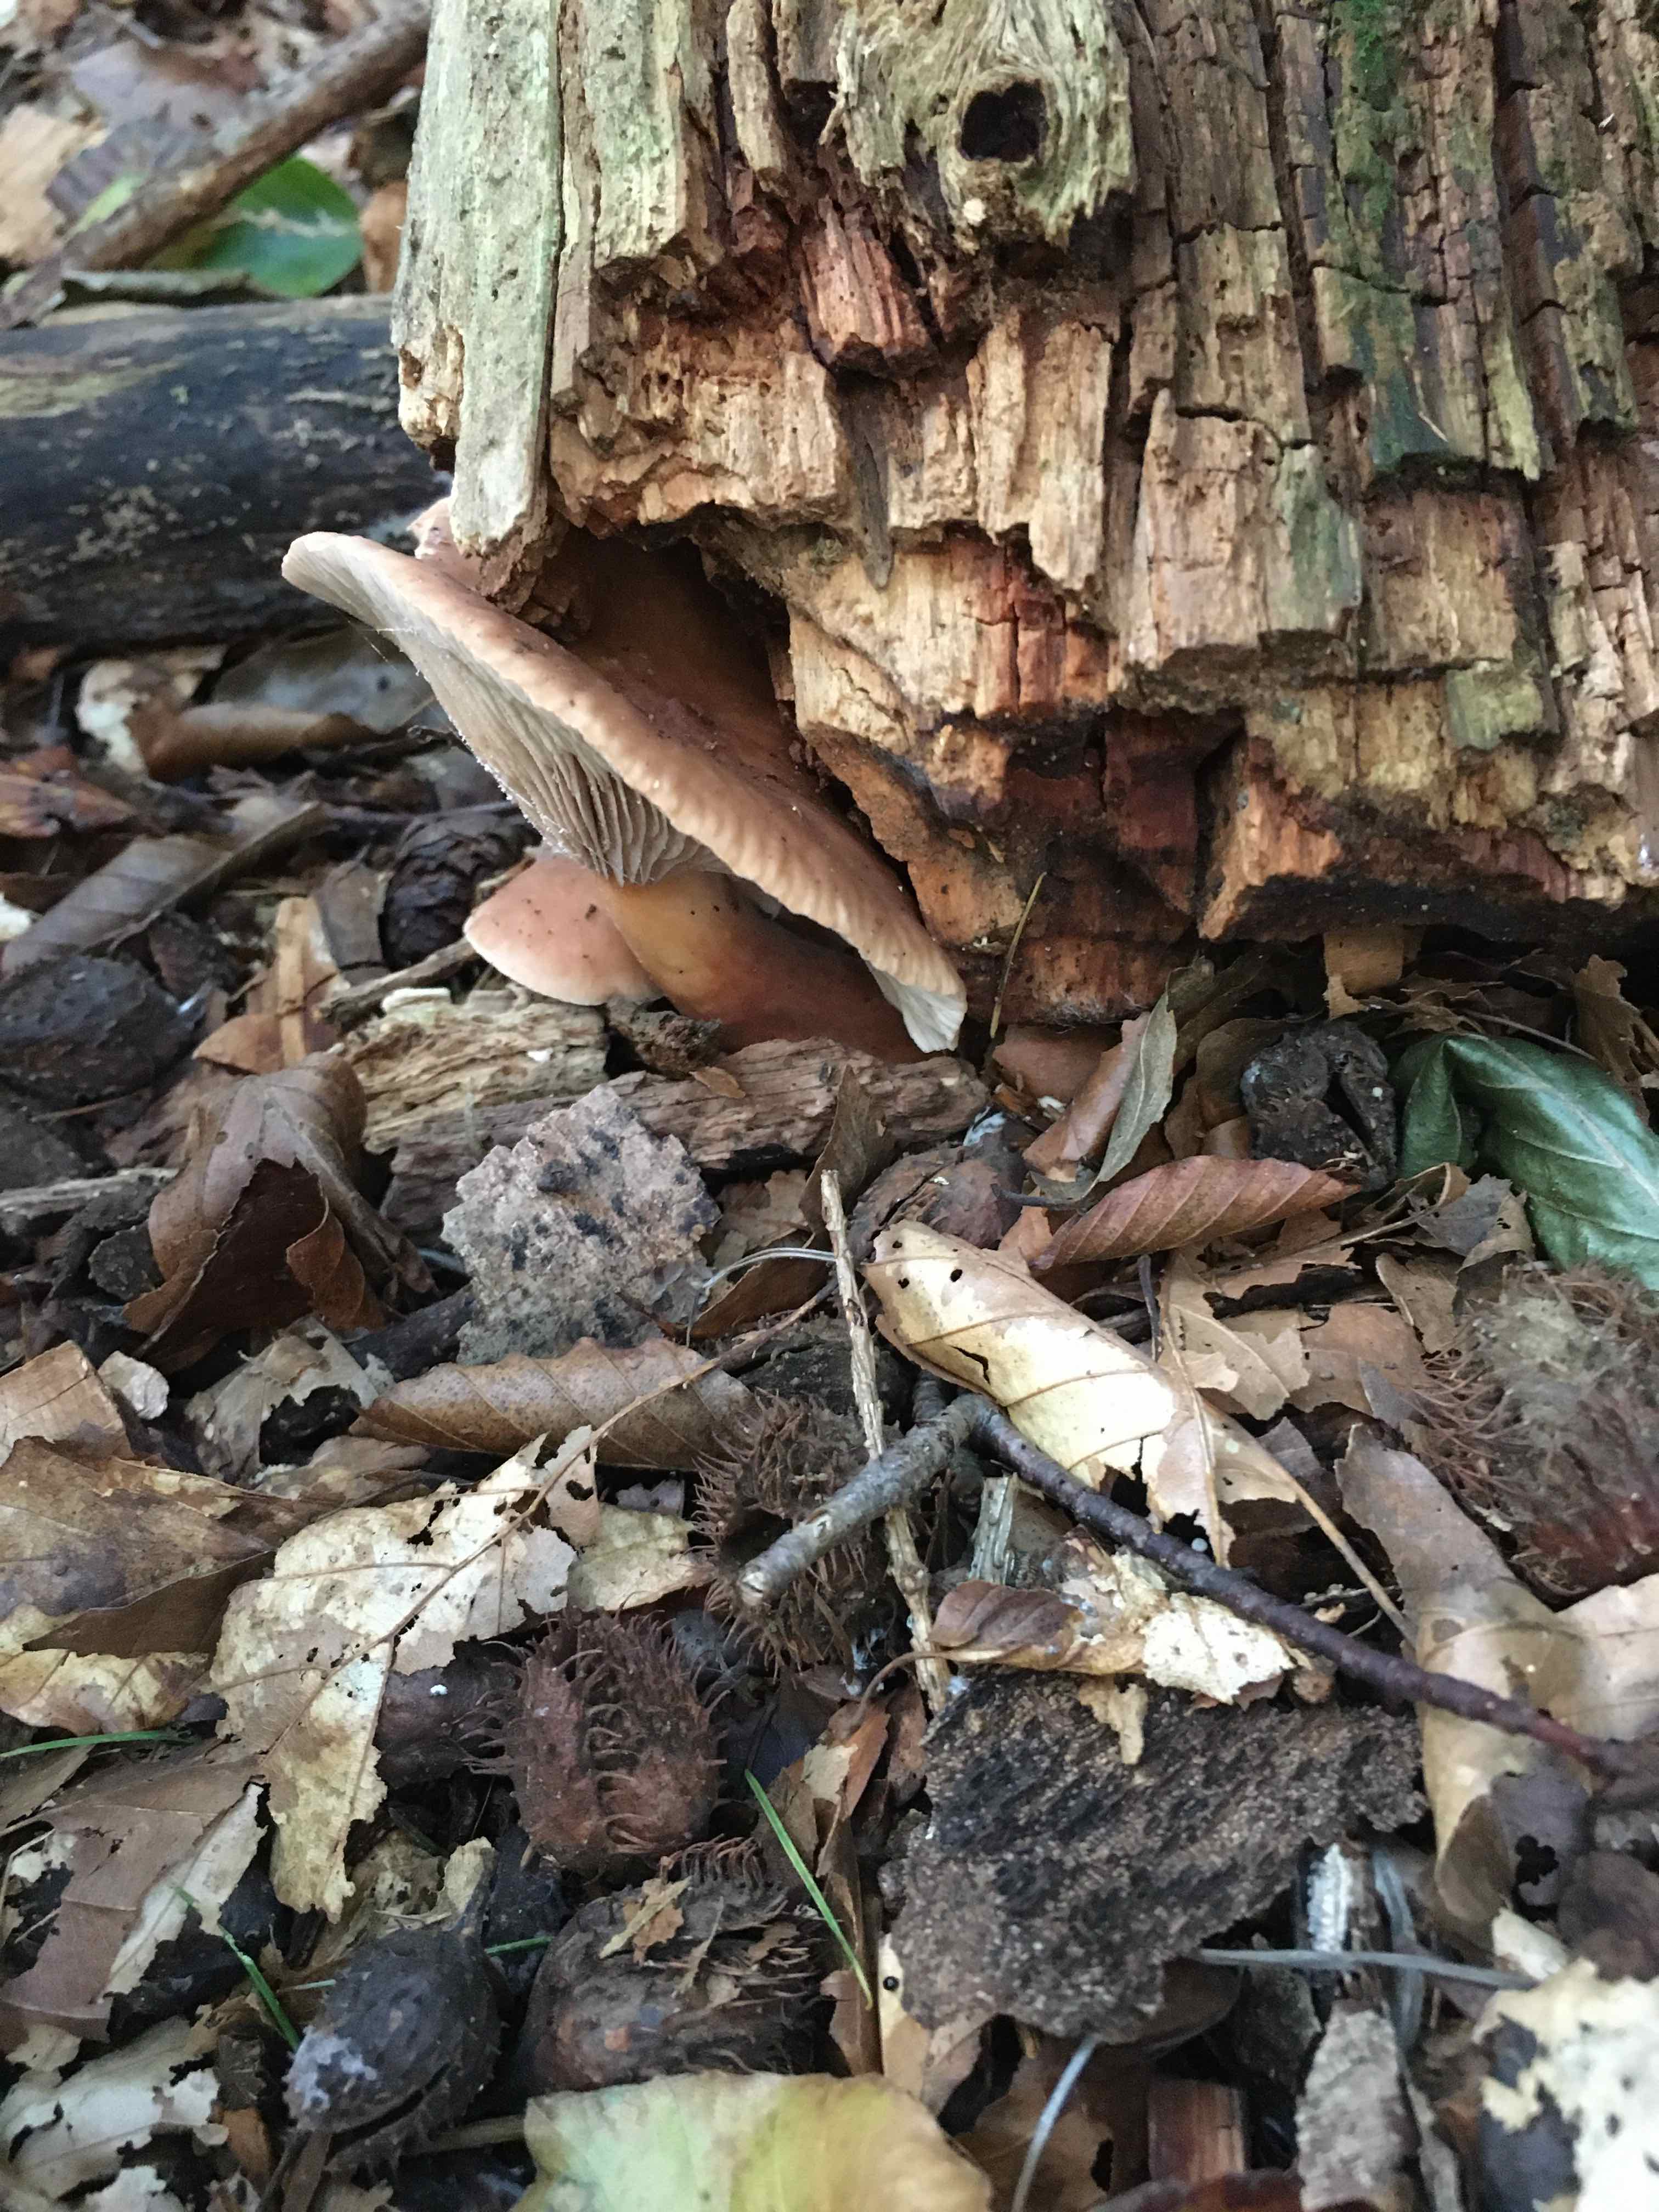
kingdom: Fungi
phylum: Basidiomycota
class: Agaricomycetes
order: Russulales
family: Russulaceae
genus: Lactarius
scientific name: Lactarius subdulcis
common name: sødlig mælkehat
